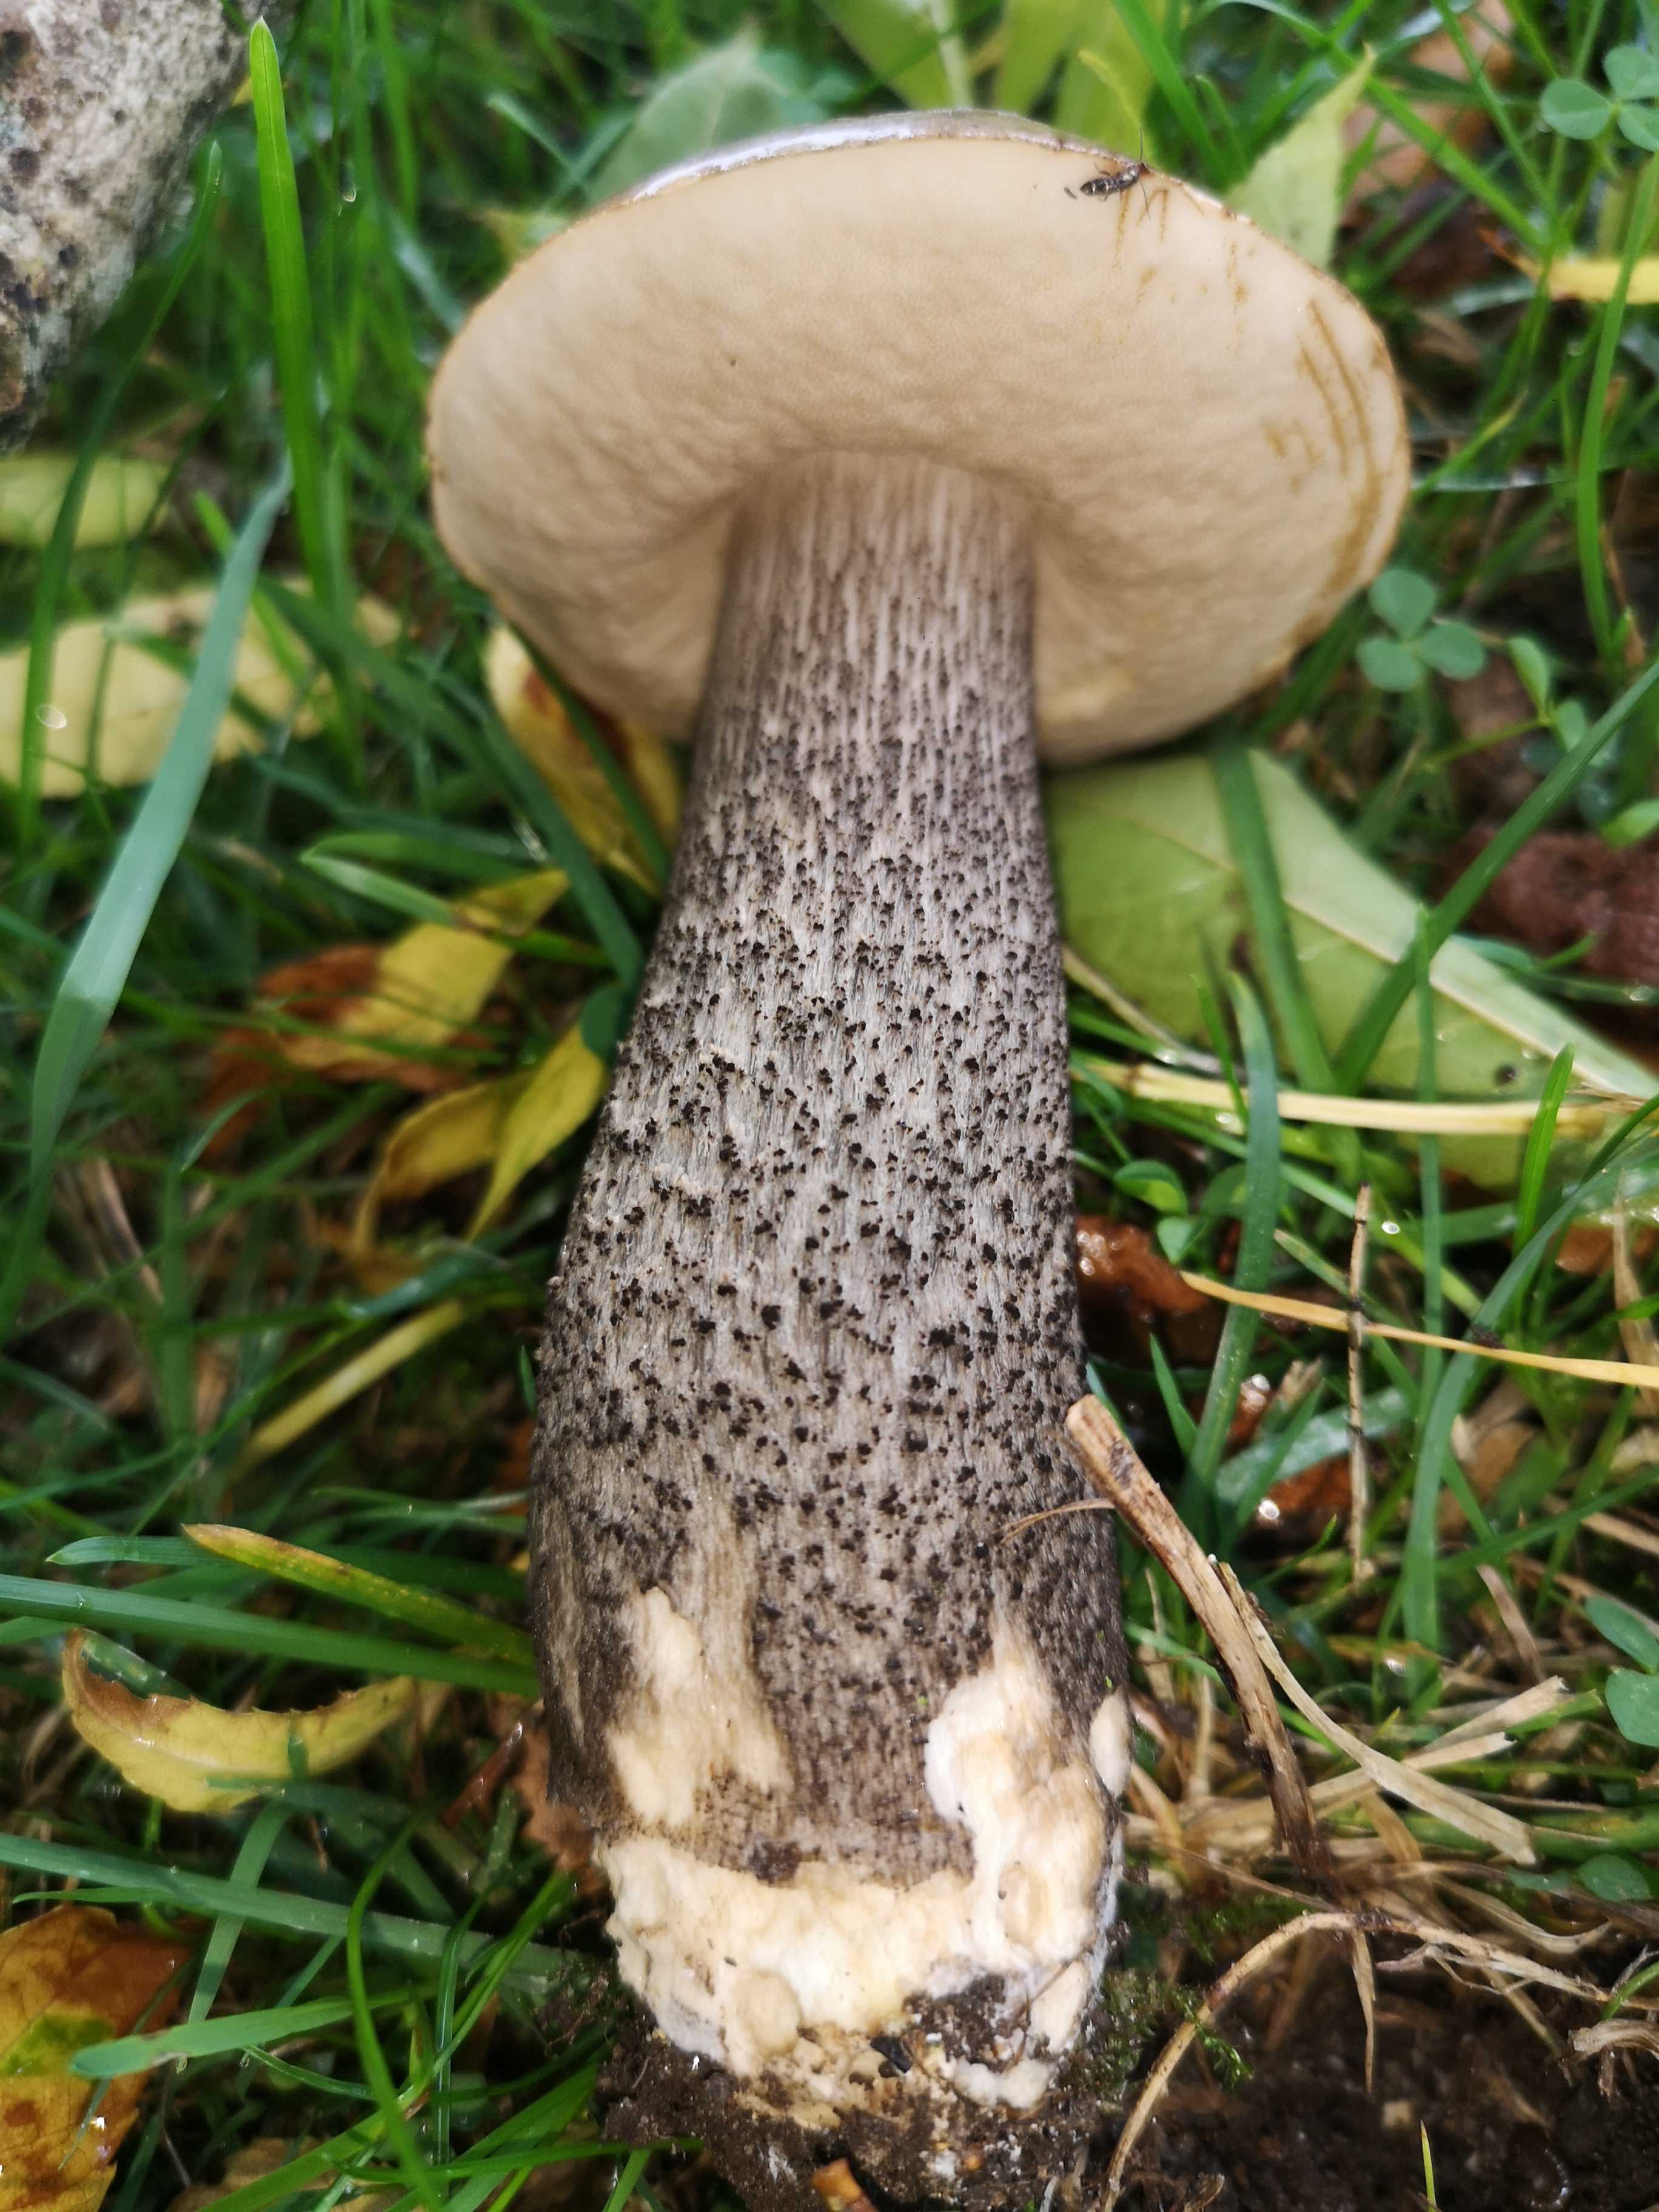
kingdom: Fungi
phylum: Basidiomycota
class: Agaricomycetes
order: Boletales
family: Boletaceae
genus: Leccinum
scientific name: Leccinum scabrum
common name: brun skælrørhat
